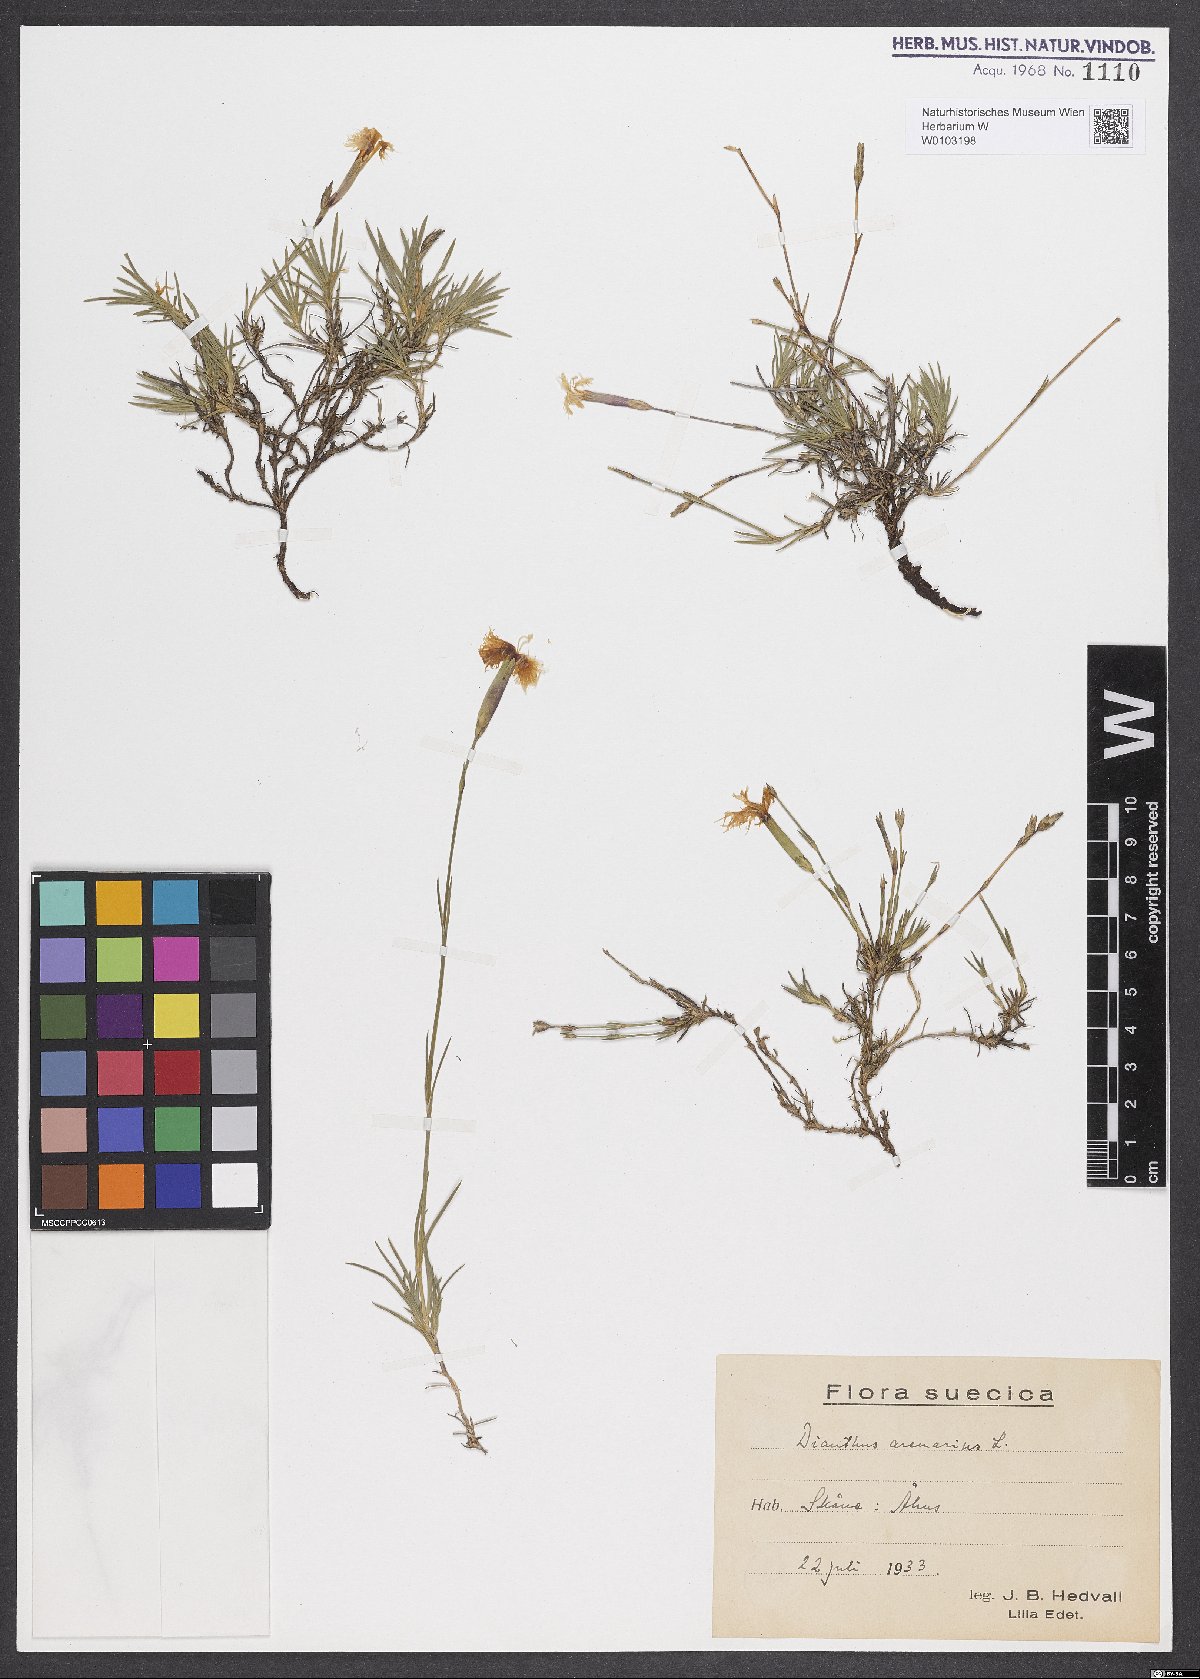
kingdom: Plantae
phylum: Tracheophyta
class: Magnoliopsida
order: Caryophyllales
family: Caryophyllaceae
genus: Dianthus
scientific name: Dianthus arenarius
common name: Stone pink
